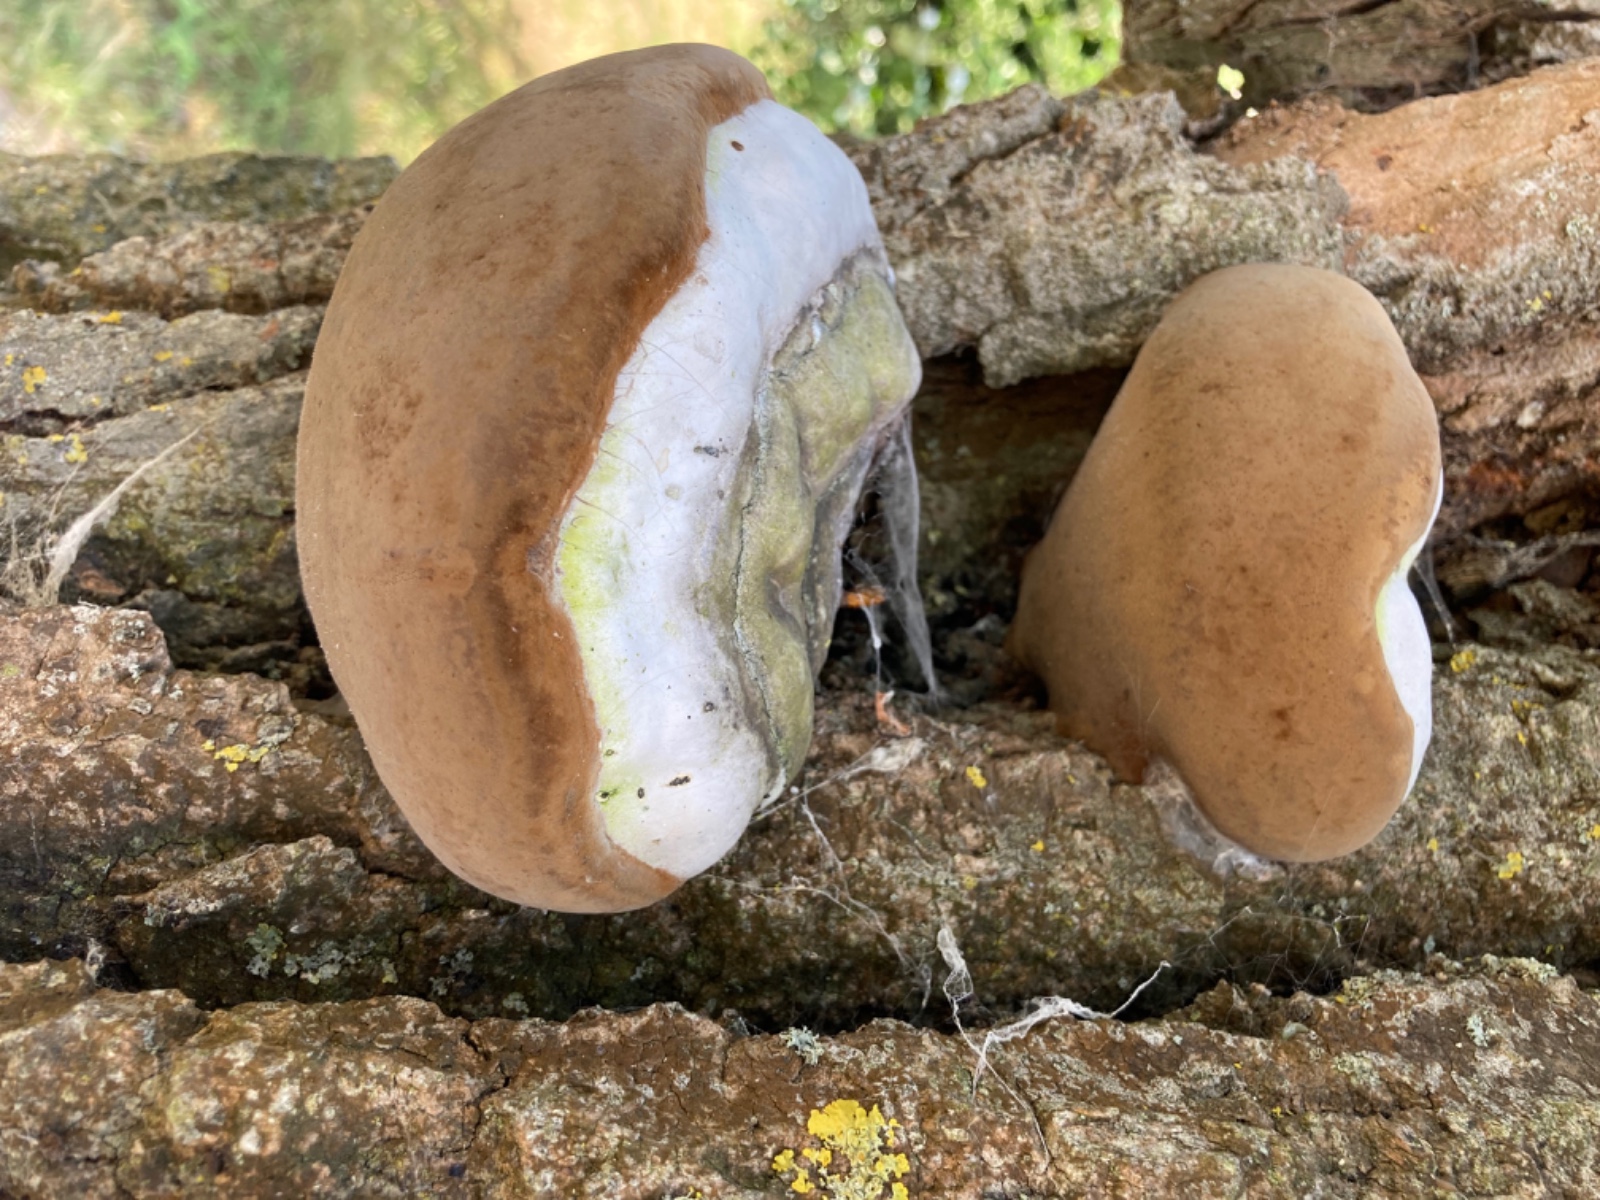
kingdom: Fungi
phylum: Basidiomycota
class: Agaricomycetes
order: Hymenochaetales
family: Hymenochaetaceae
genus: Phellinus
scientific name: Phellinus populicola
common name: poppel-ildporesvamp
